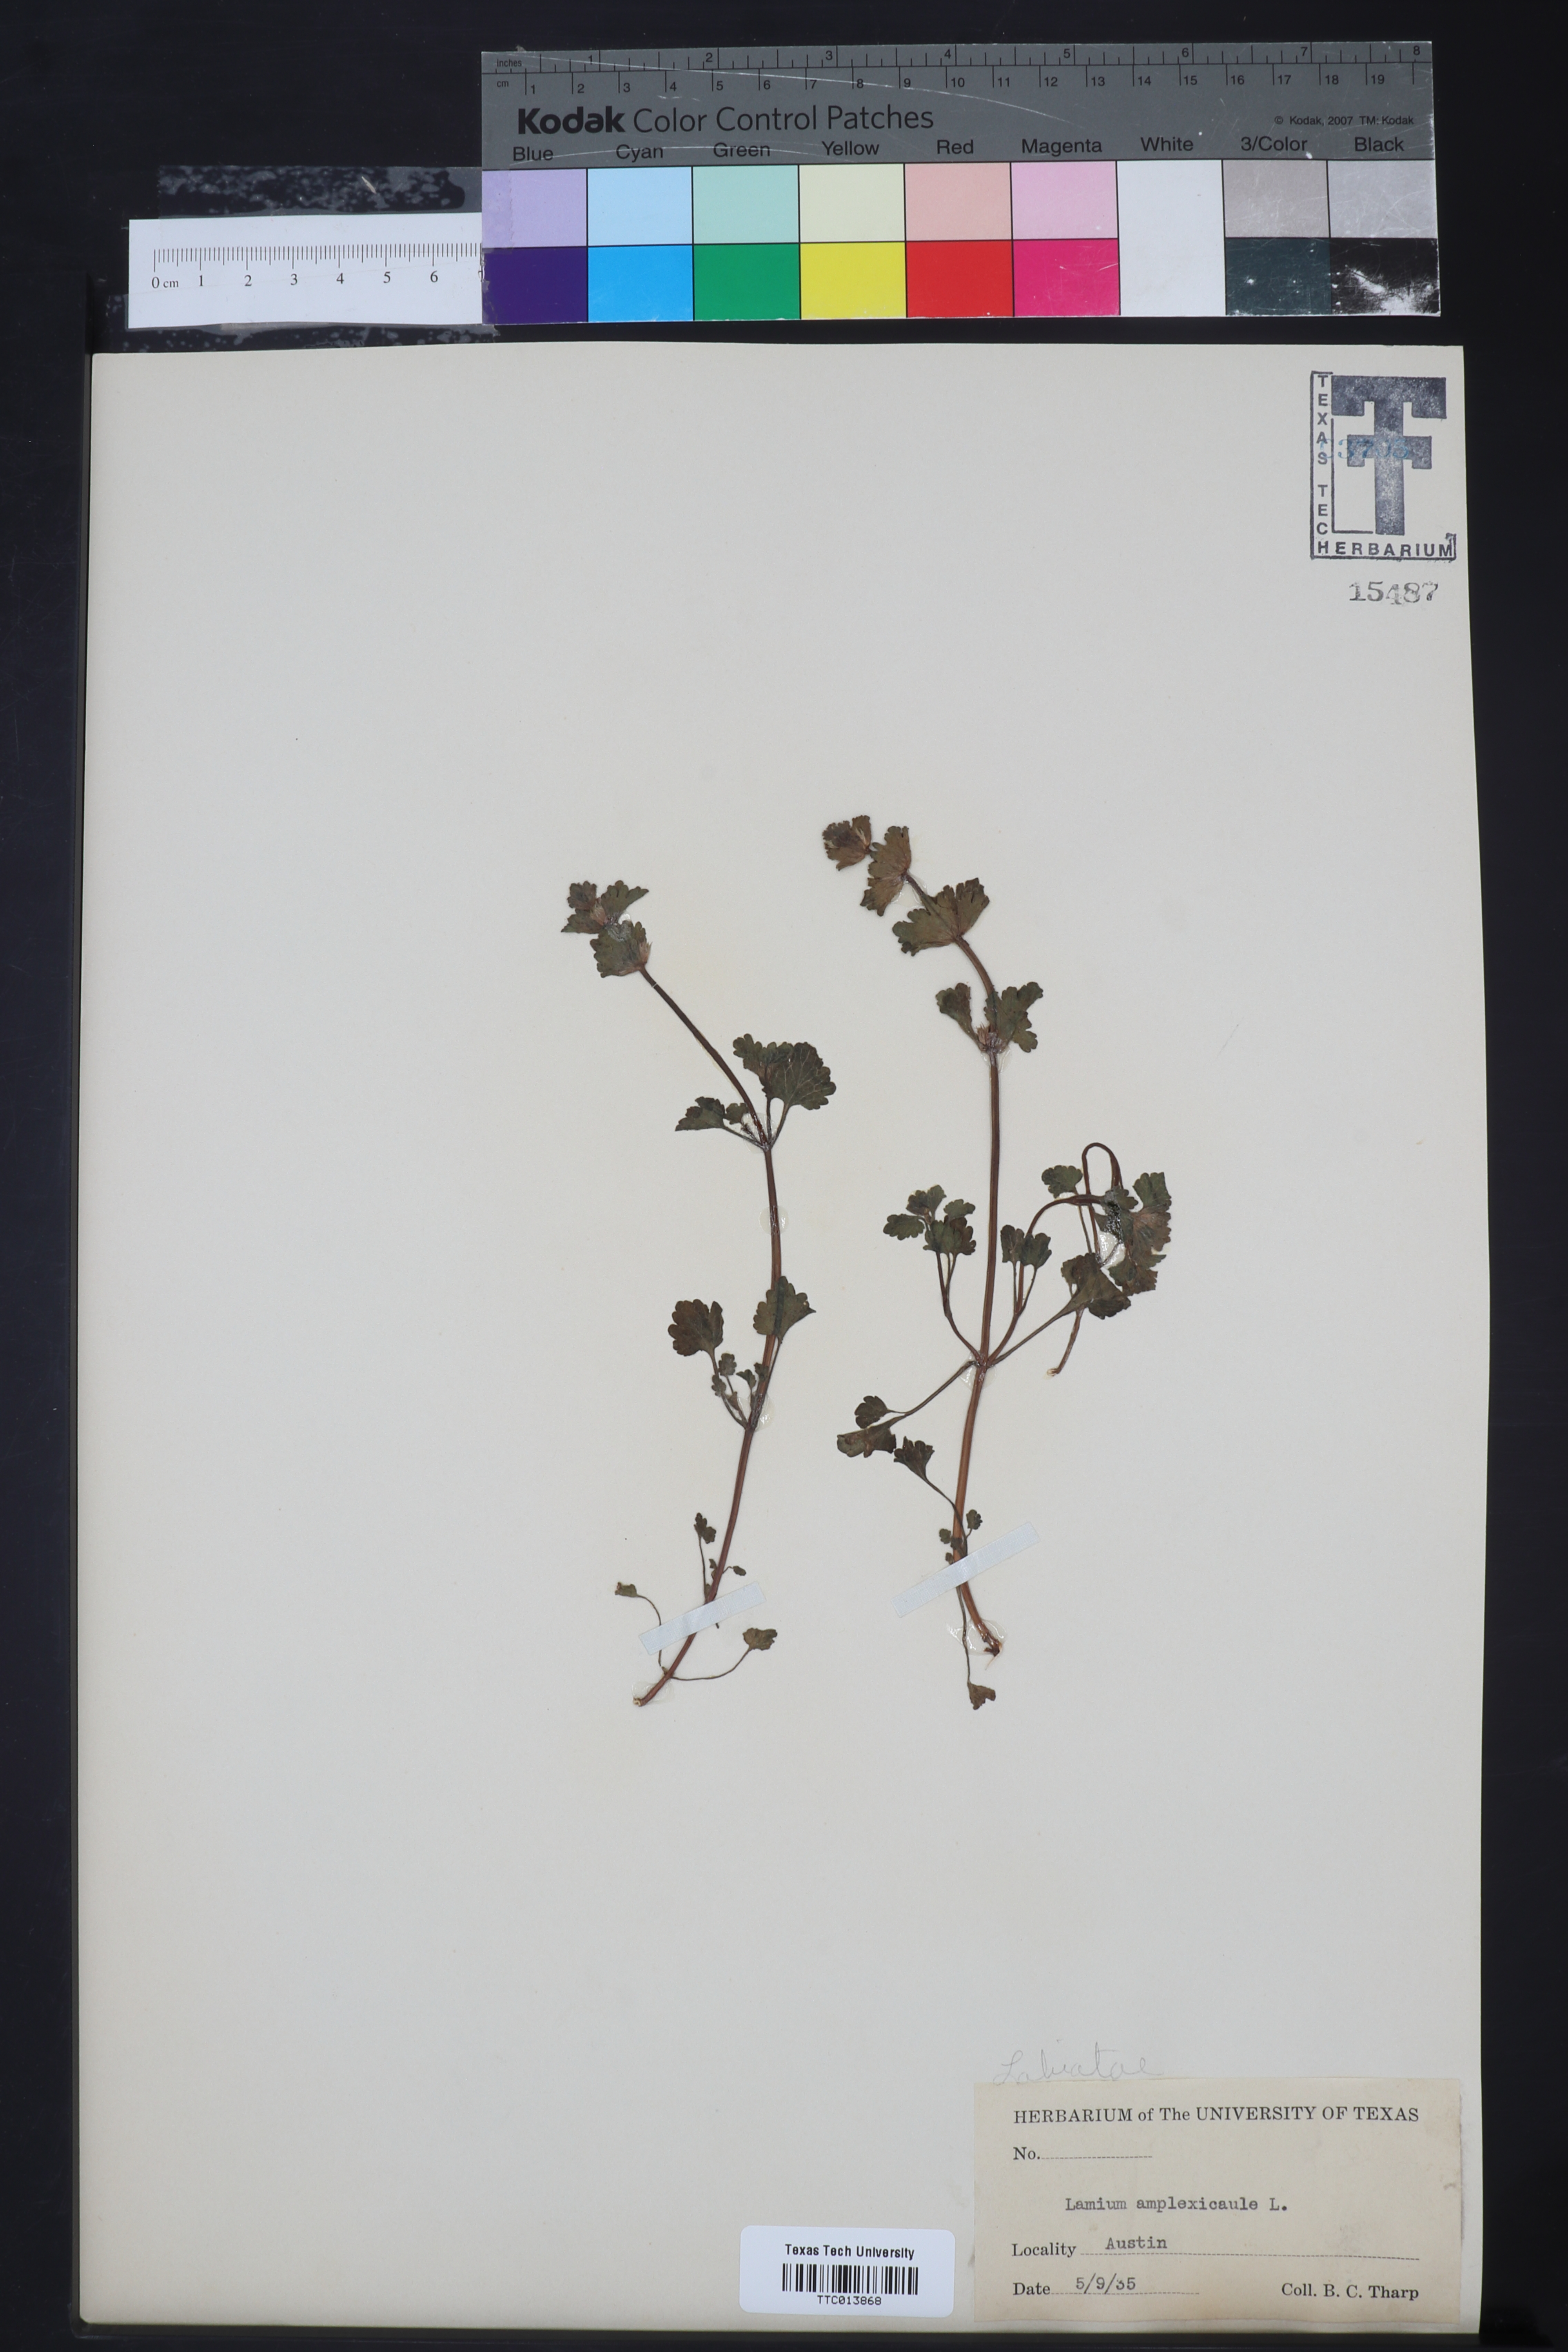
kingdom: Plantae
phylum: Tracheophyta
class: Magnoliopsida
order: Lamiales
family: Lamiaceae
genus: Lamium
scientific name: Lamium amplexicaule
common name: Henbit dead-nettle
